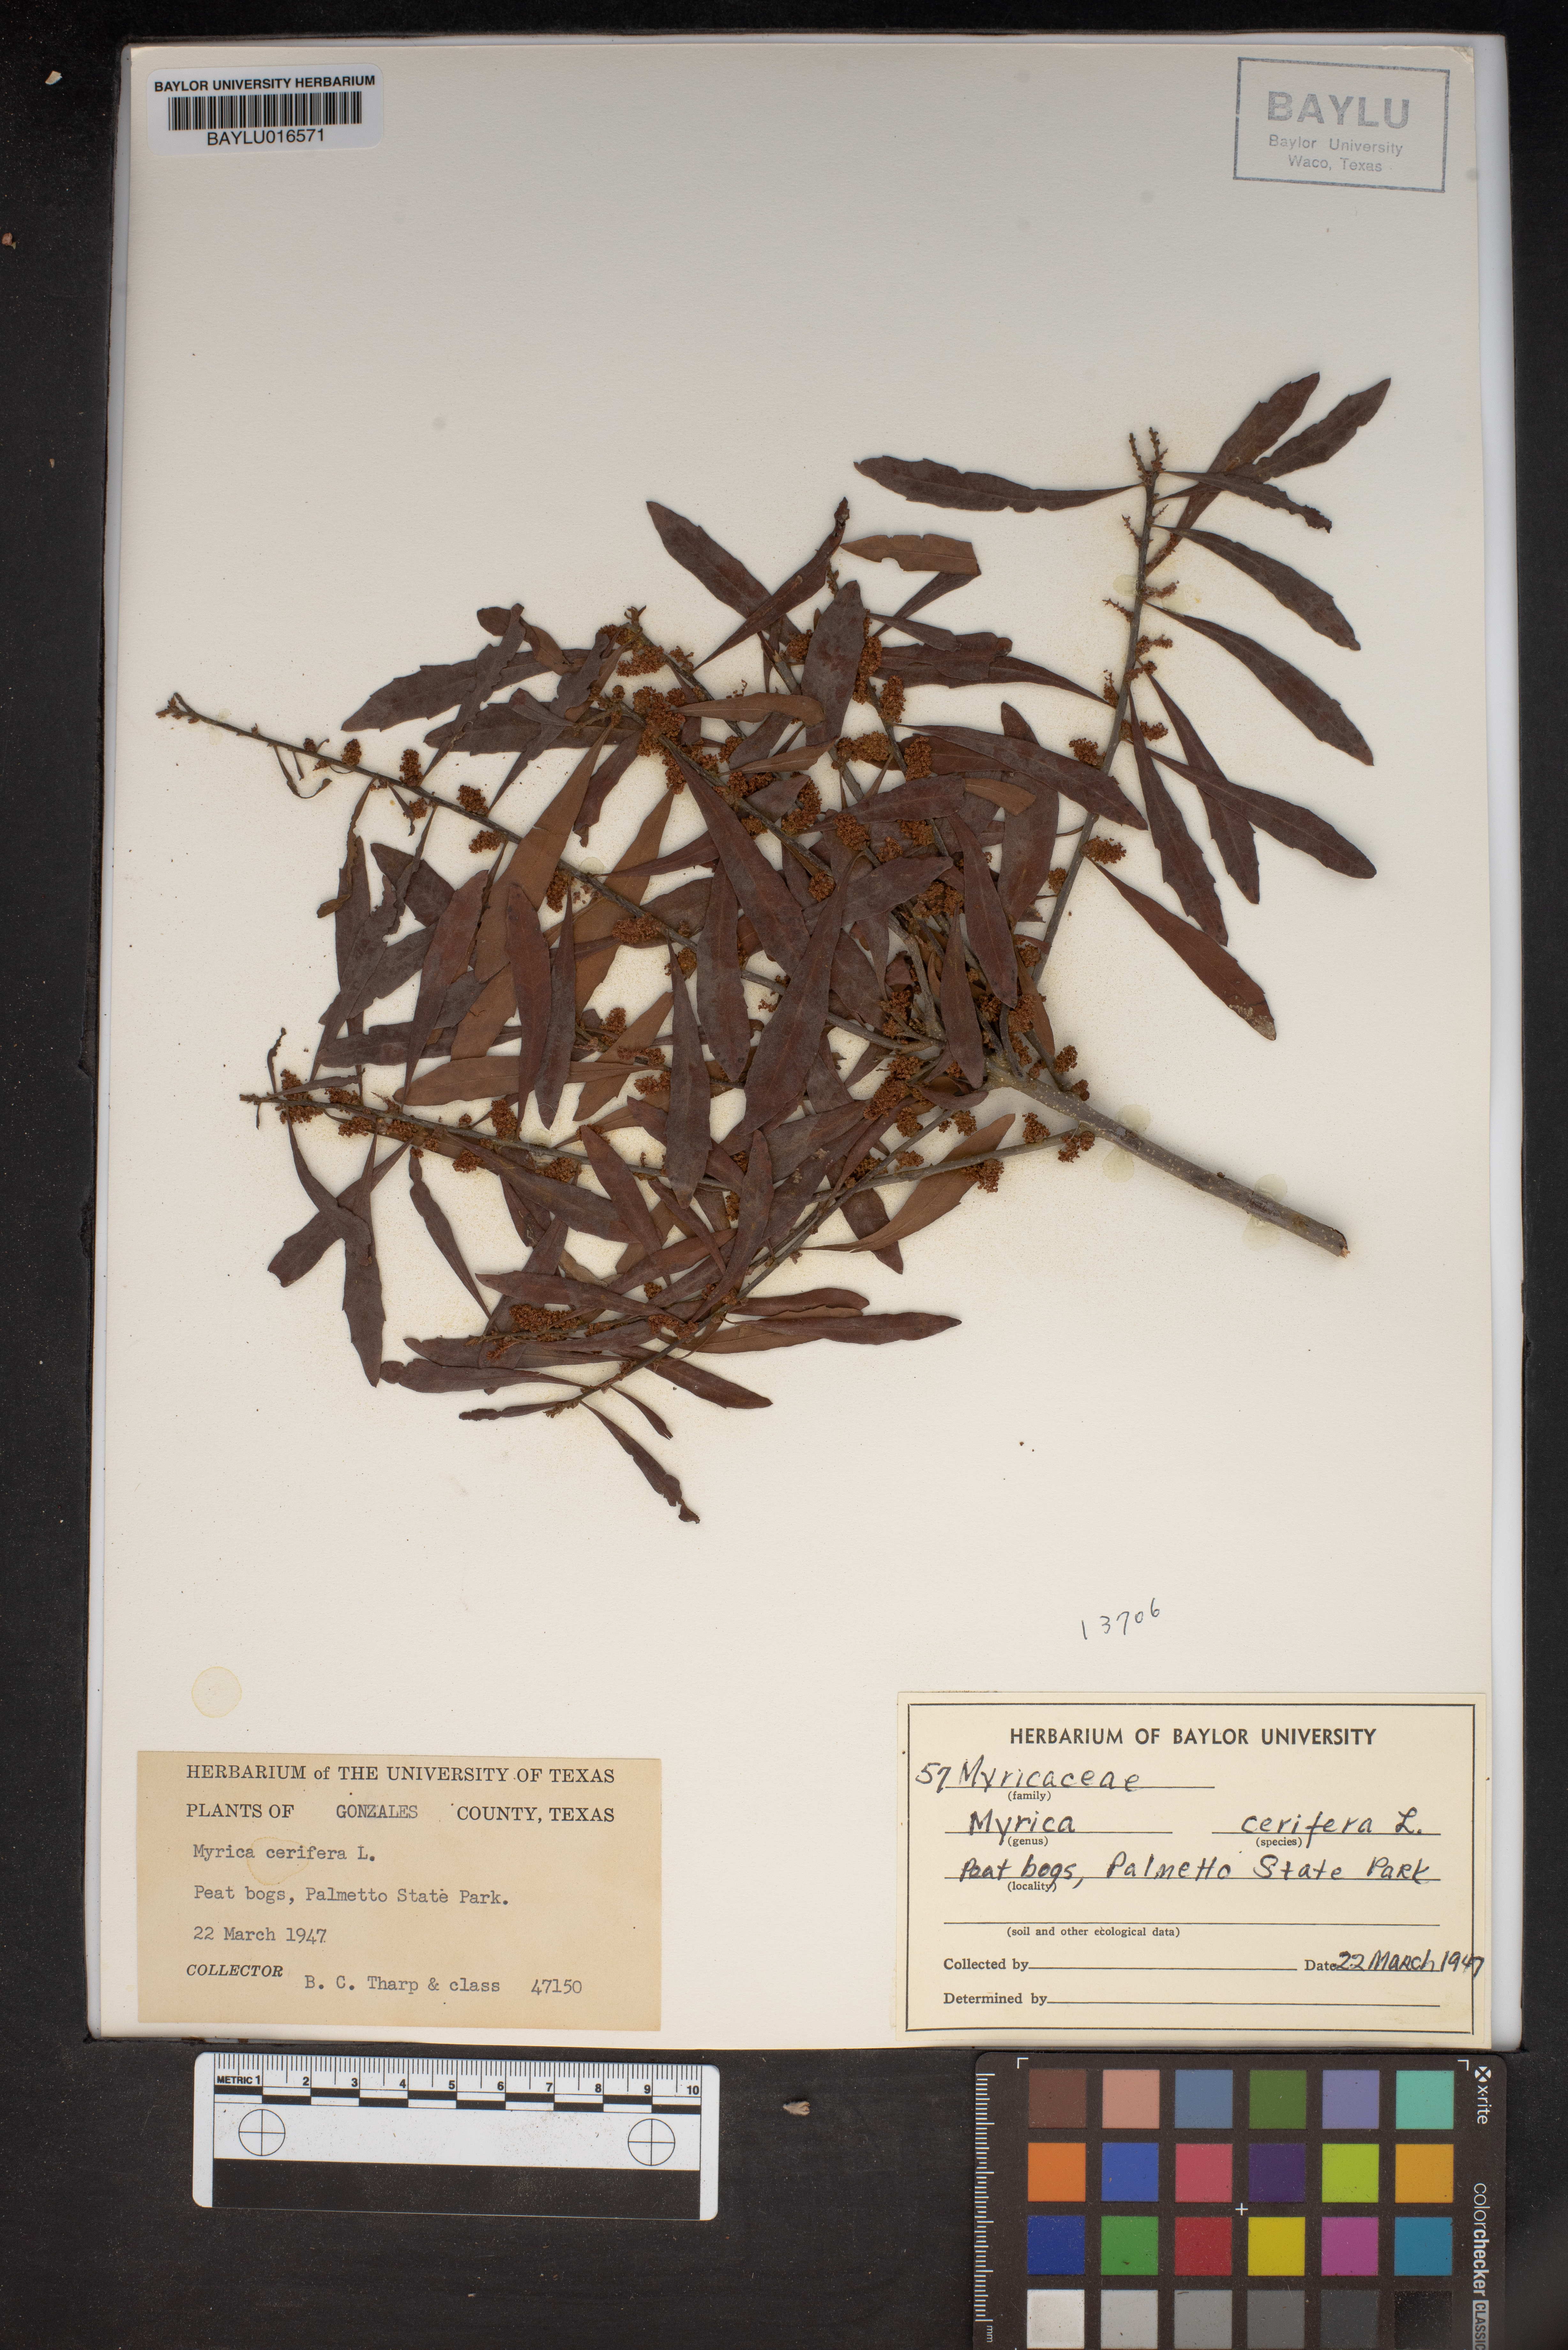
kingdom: Plantae
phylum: Tracheophyta
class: Magnoliopsida
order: Fagales
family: Myricaceae
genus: Morella
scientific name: Morella cerifera
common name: Wax myrtle
